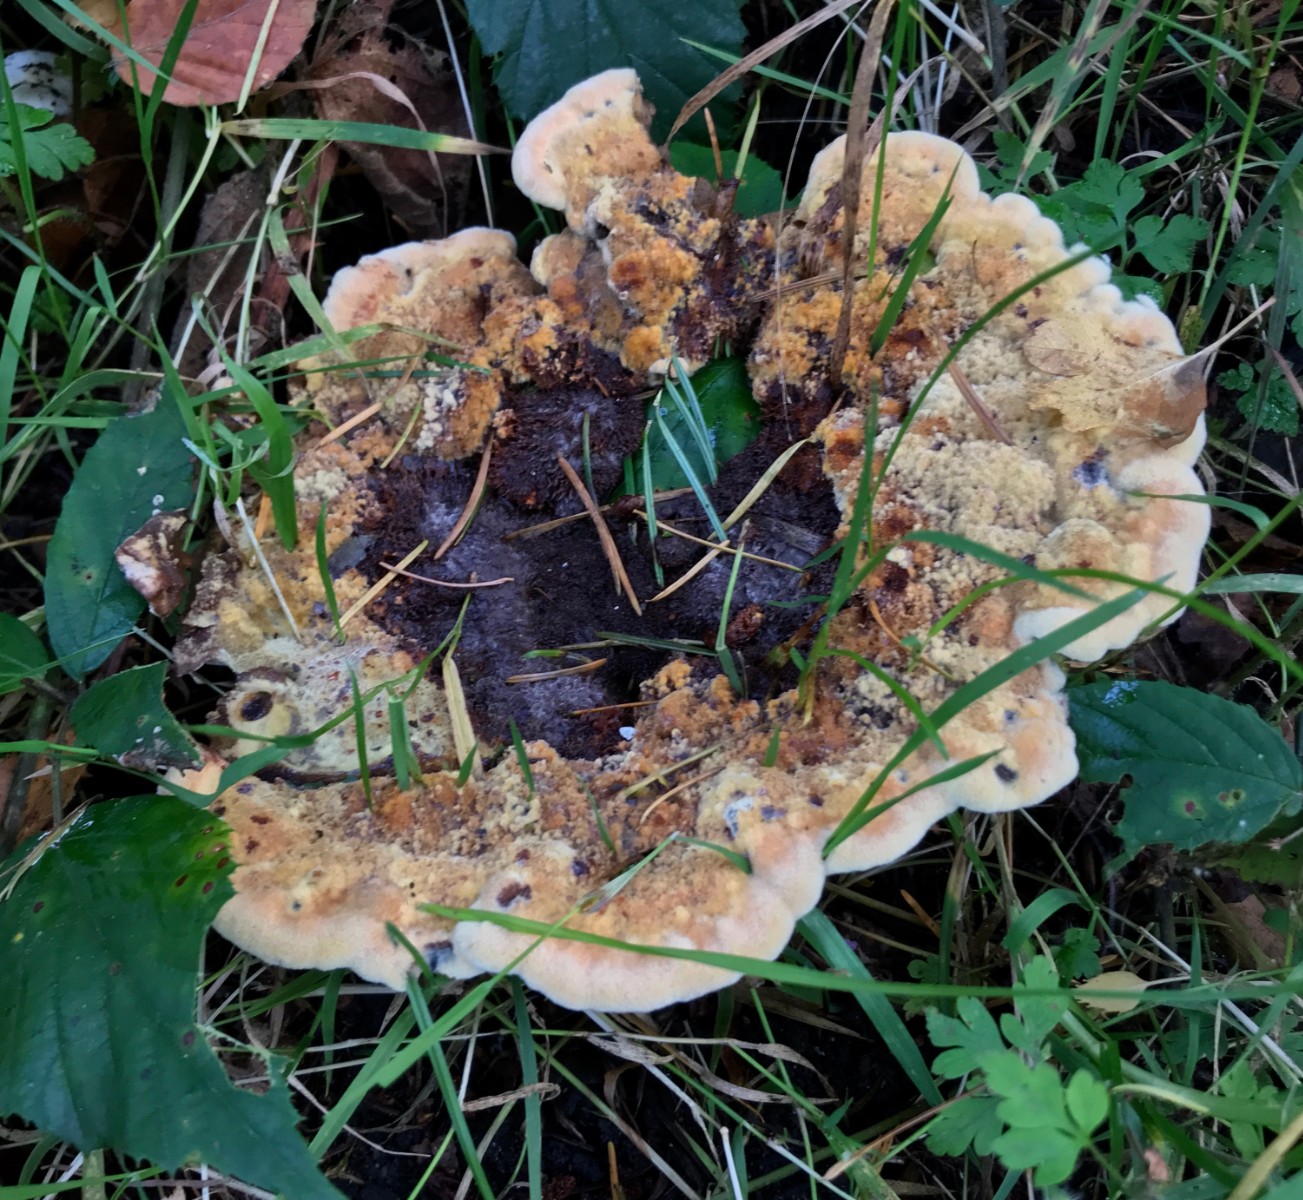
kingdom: Fungi
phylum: Basidiomycota
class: Agaricomycetes
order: Polyporales
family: Laetiporaceae
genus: Phaeolus
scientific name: Phaeolus schweinitzii
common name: brunporesvamp
